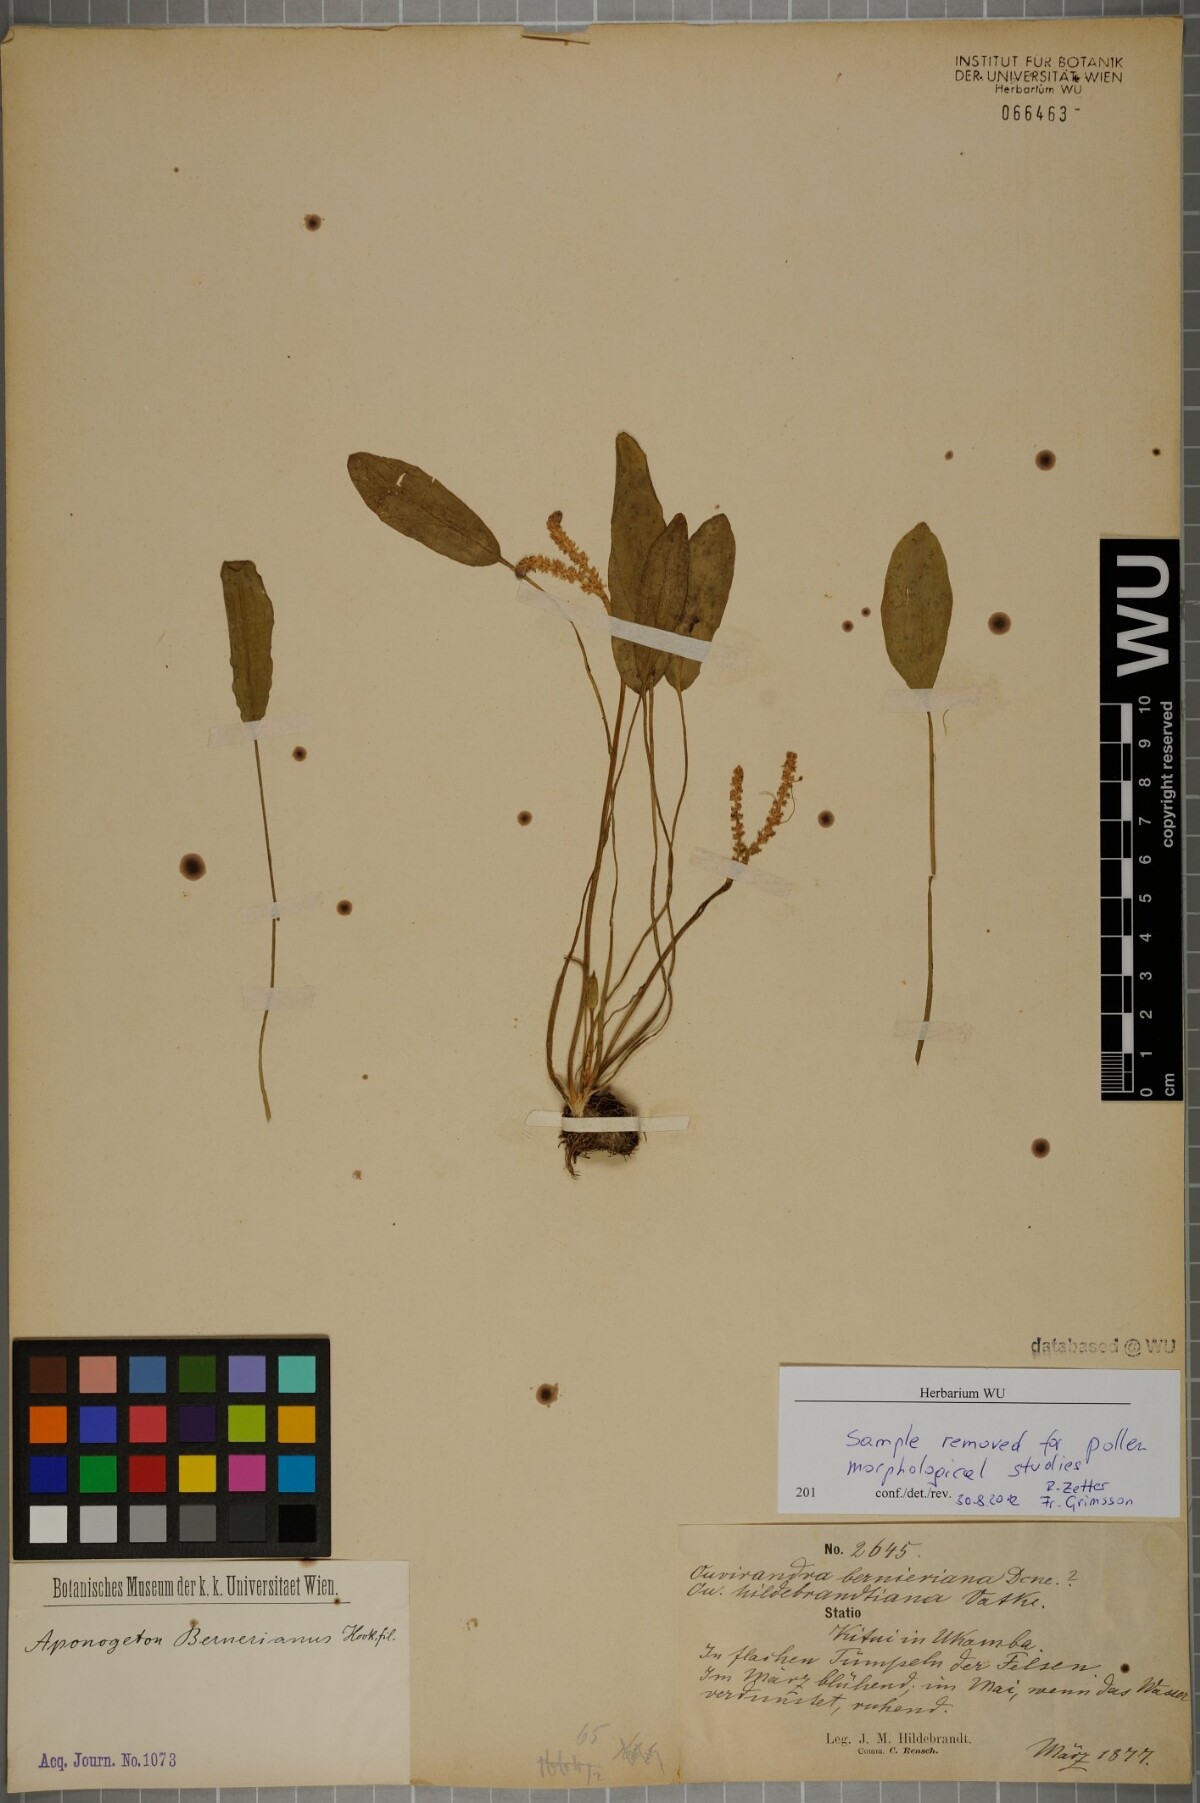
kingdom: Plantae
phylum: Tracheophyta
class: Liliopsida
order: Alismatales
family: Aponogetonaceae
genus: Aponogeton
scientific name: Aponogeton abyssinicus
